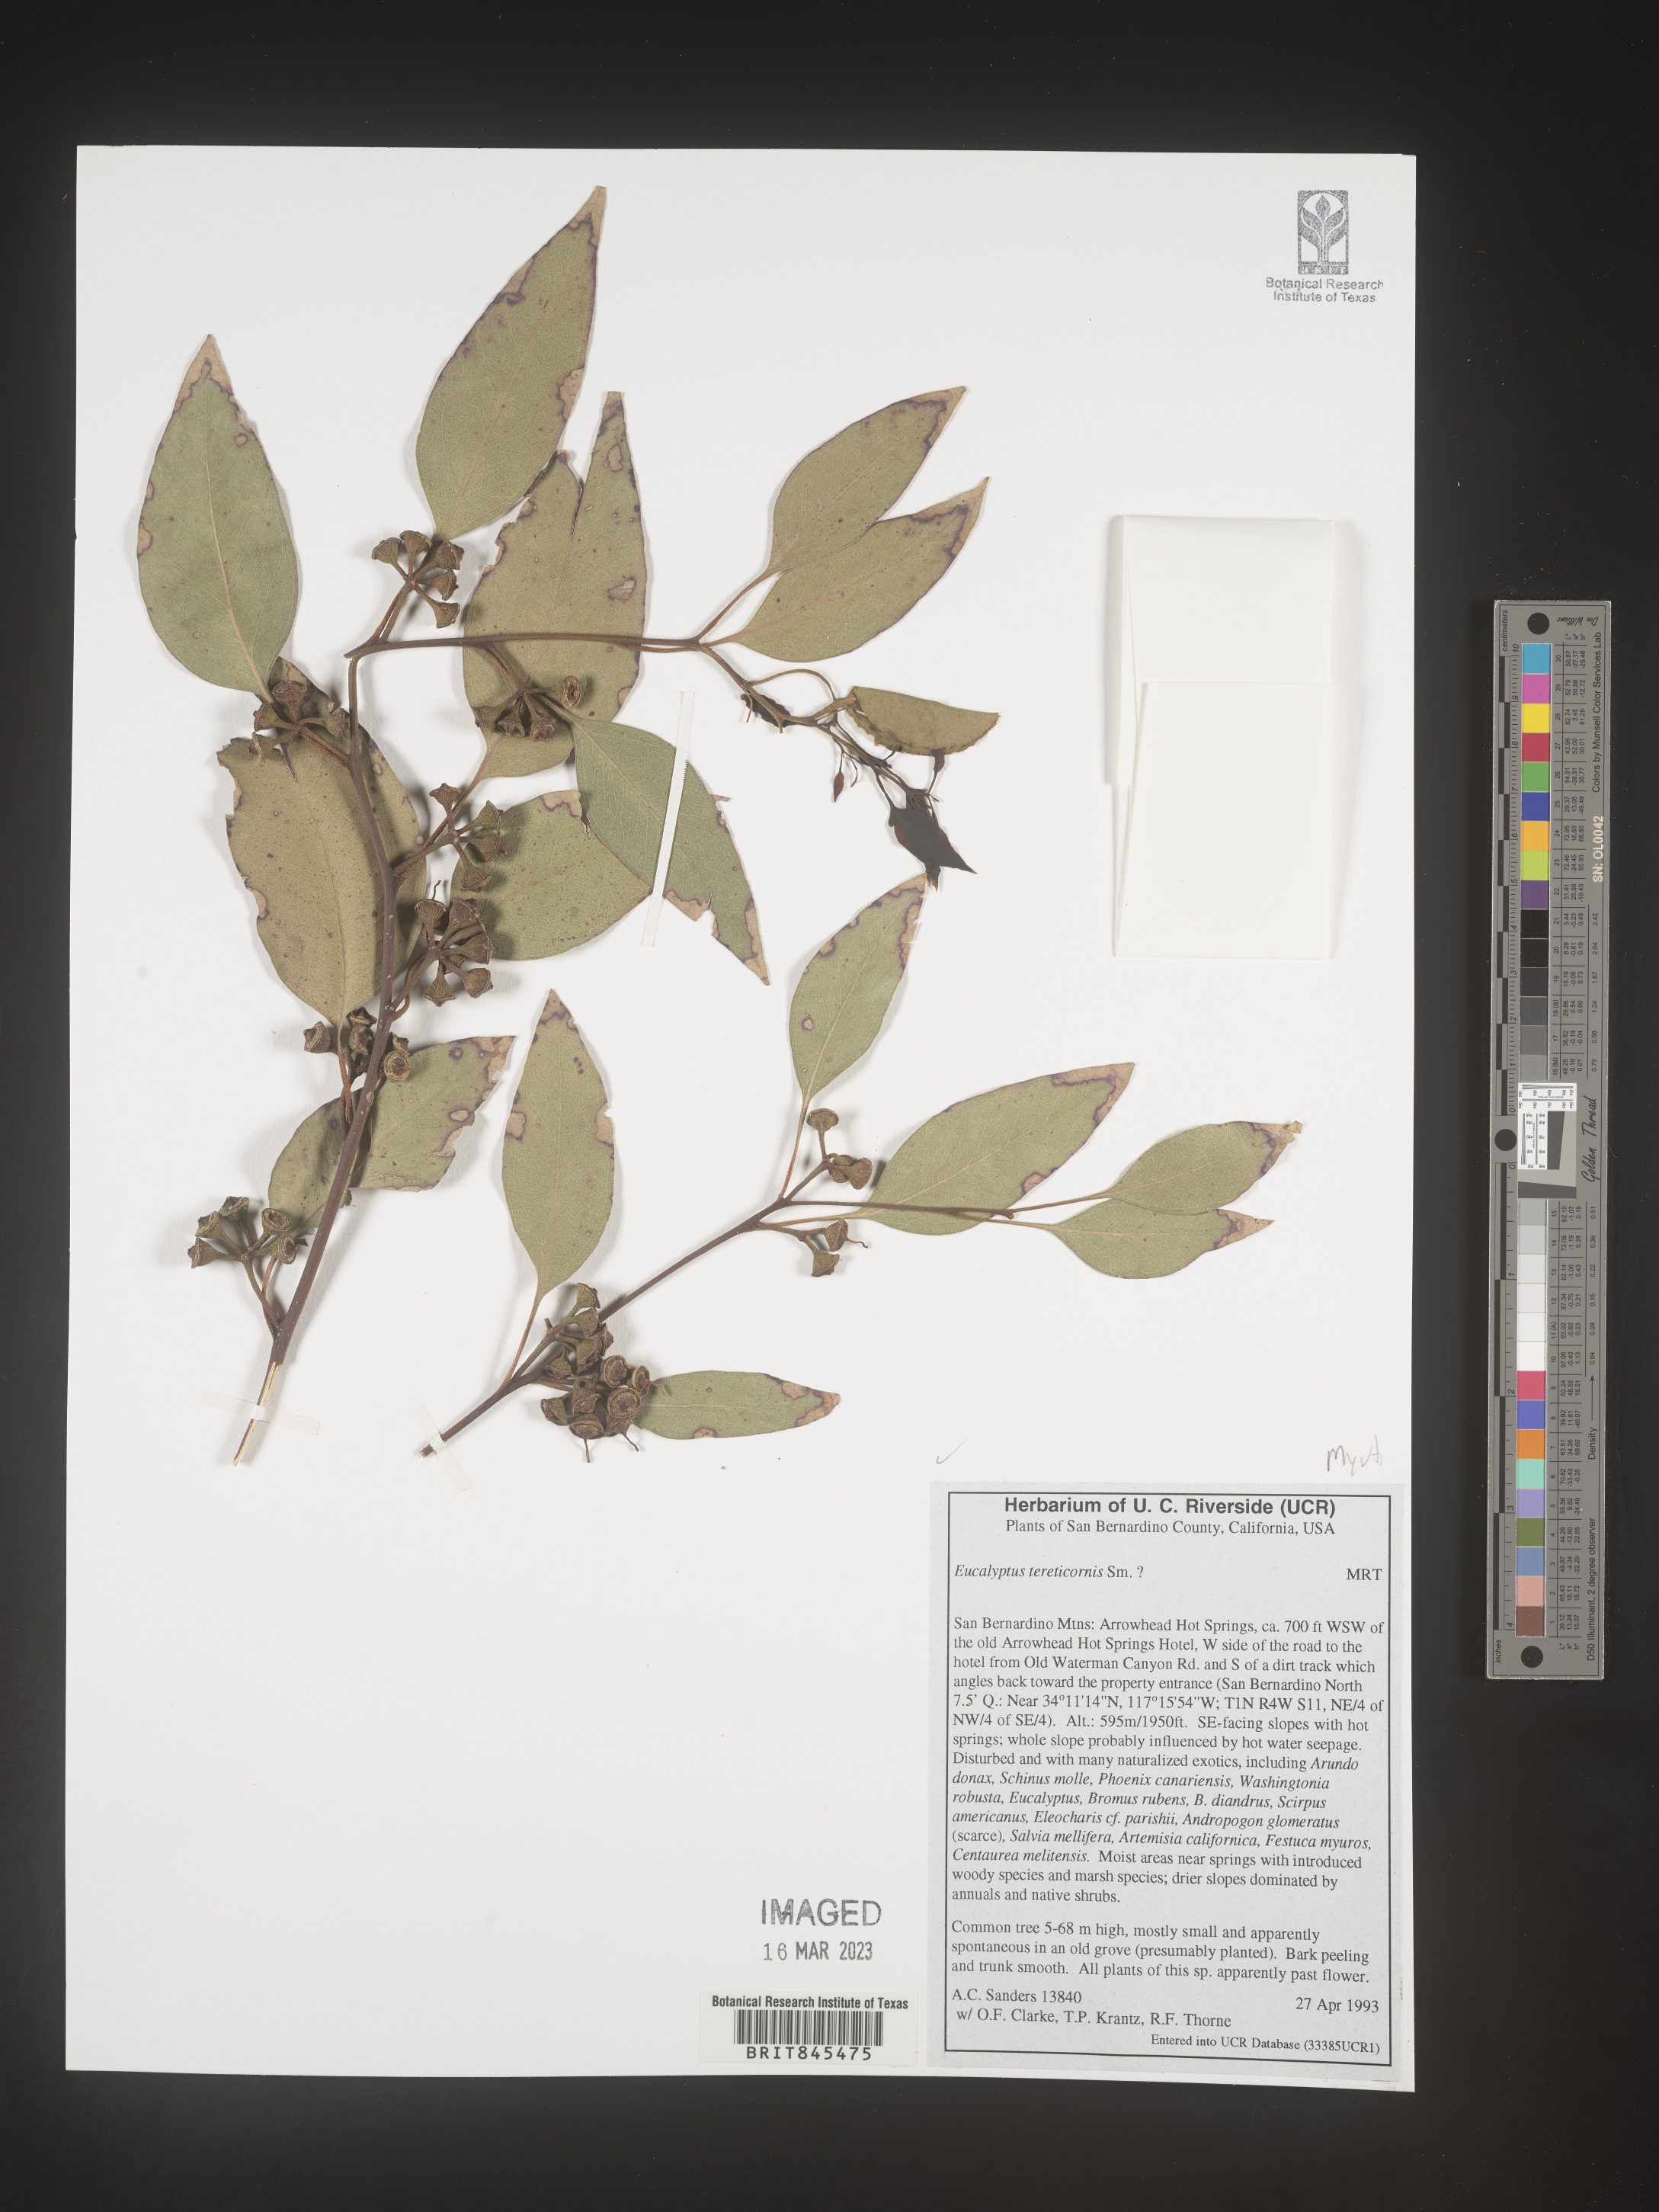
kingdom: Plantae
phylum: Tracheophyta
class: Magnoliopsida
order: Myrtales
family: Myrtaceae
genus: Eucalyptus
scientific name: Eucalyptus
